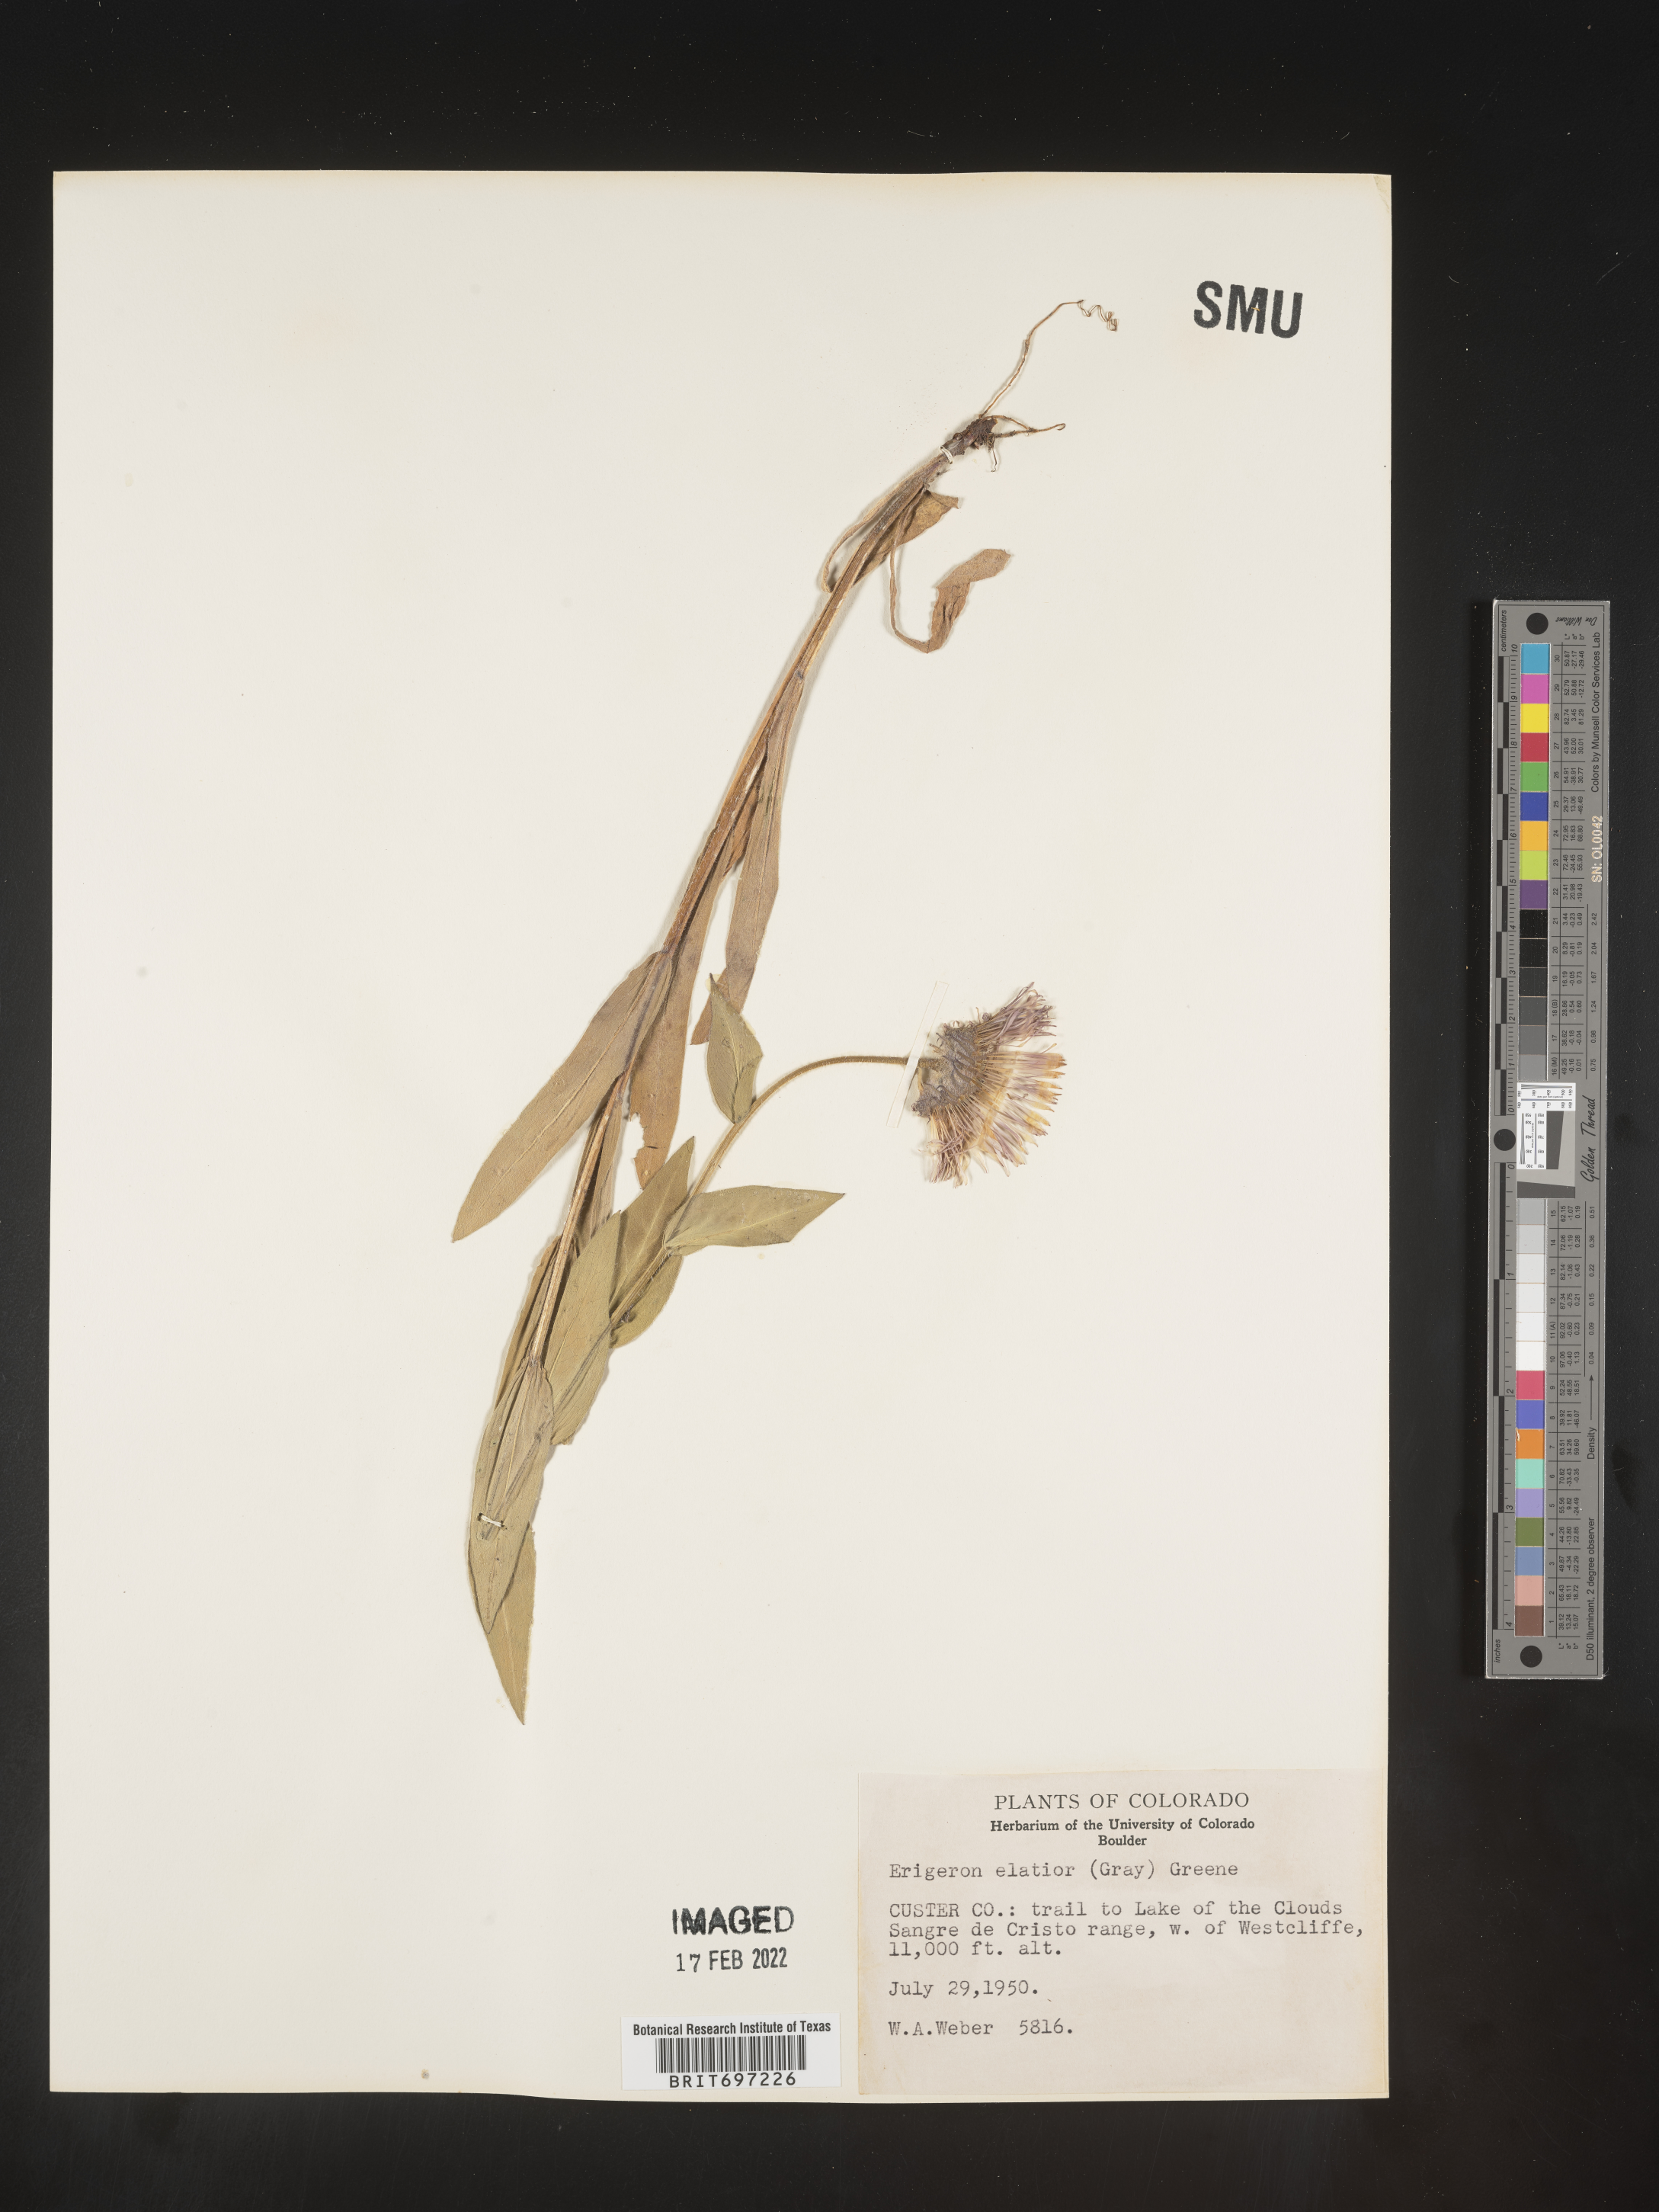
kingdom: Plantae
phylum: Tracheophyta
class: Magnoliopsida
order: Asterales
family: Asteraceae
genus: Erigeron
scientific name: Erigeron elatior
